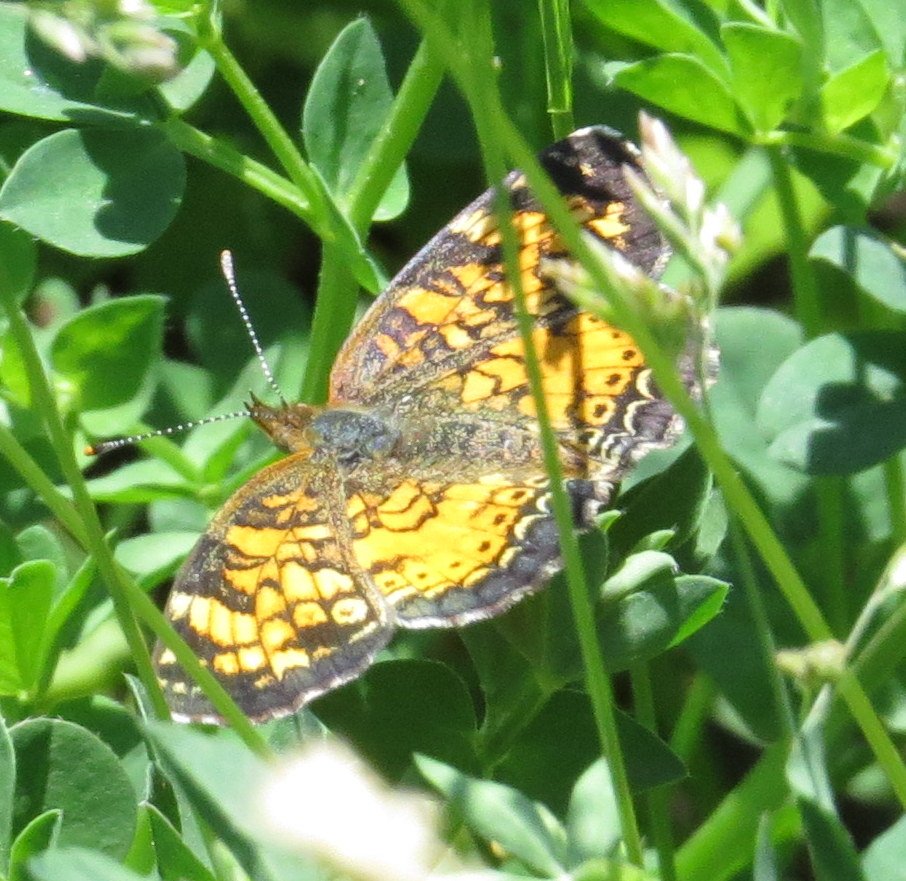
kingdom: Animalia
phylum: Arthropoda
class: Insecta
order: Lepidoptera
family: Nymphalidae
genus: Phyciodes
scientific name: Phyciodes tharos
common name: Pearl Crescent
